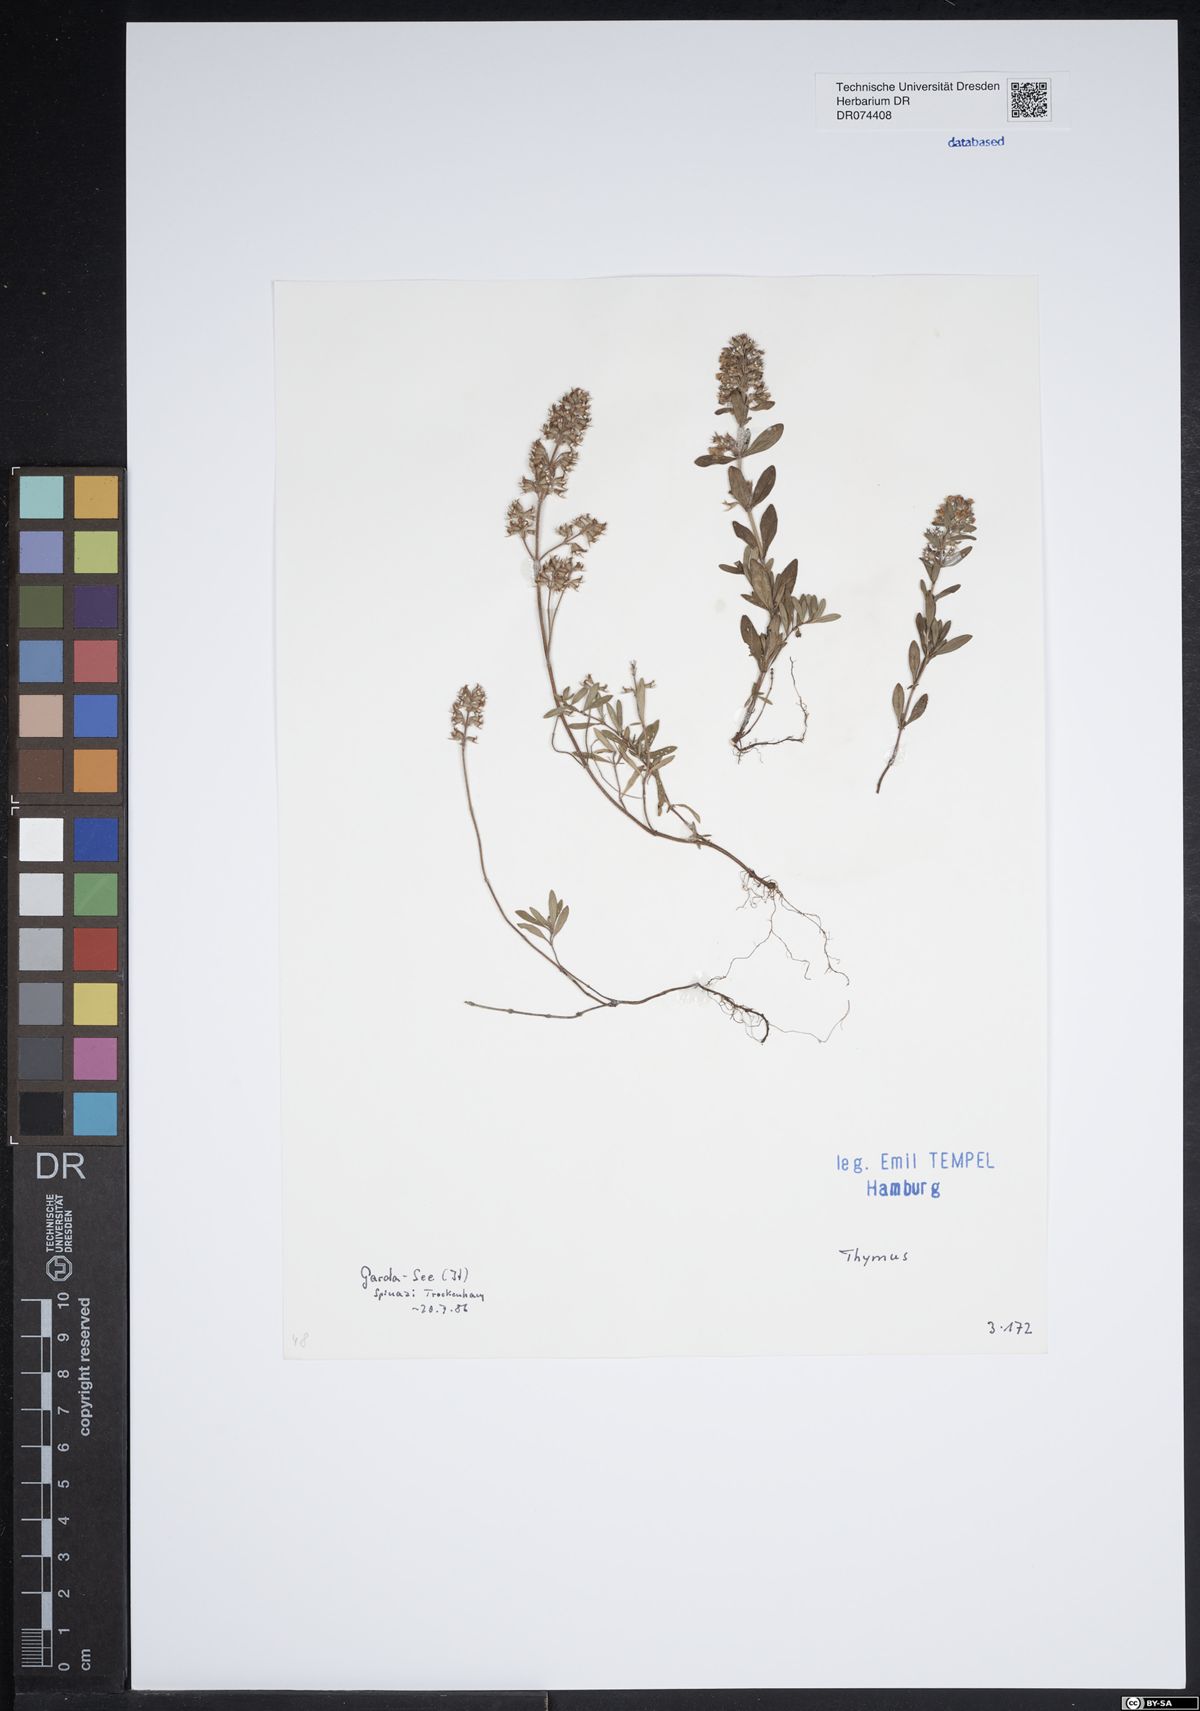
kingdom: Plantae
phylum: Tracheophyta
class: Magnoliopsida
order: Lamiales
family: Lamiaceae
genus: Thymus
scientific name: Thymus
